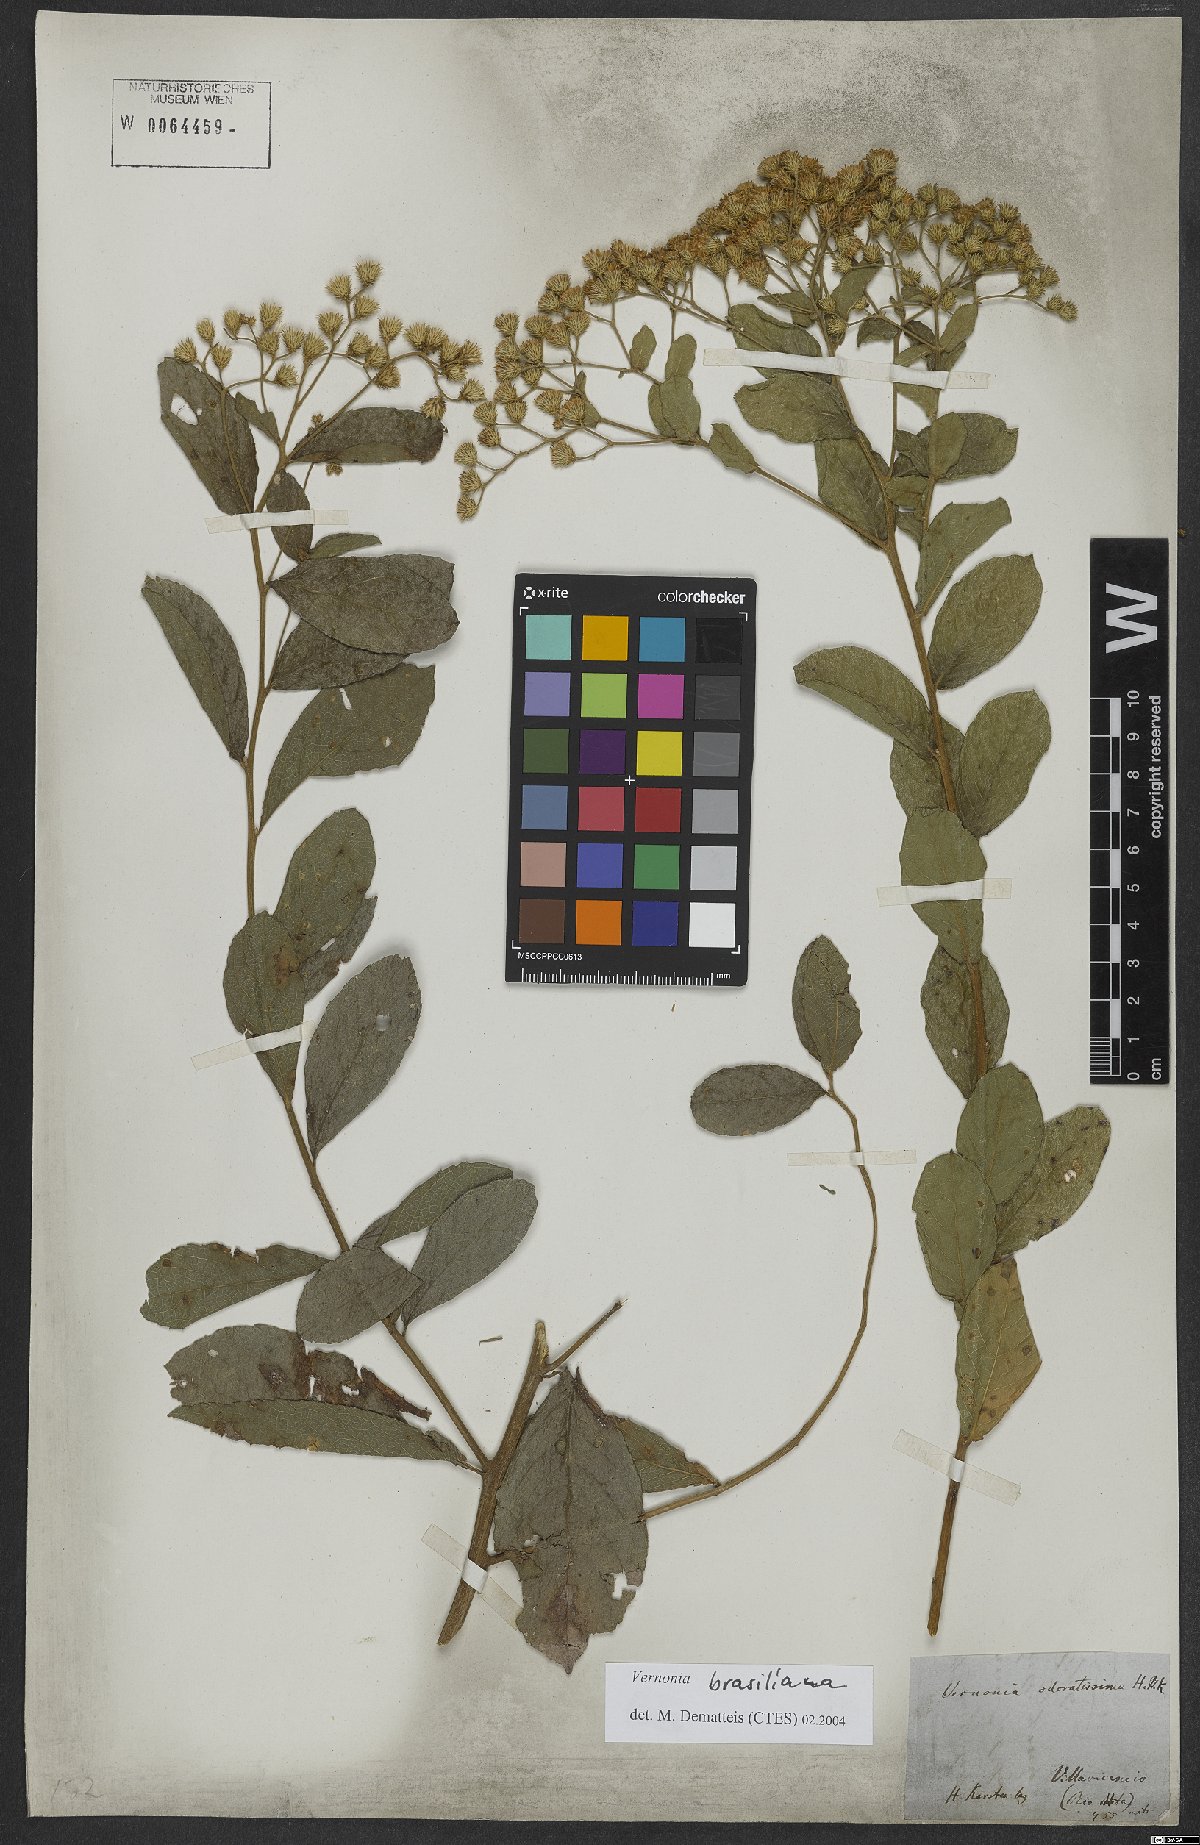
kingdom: Plantae
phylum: Tracheophyta
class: Magnoliopsida
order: Asterales
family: Asteraceae
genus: Vernonanthura
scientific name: Vernonanthura brasiliana
